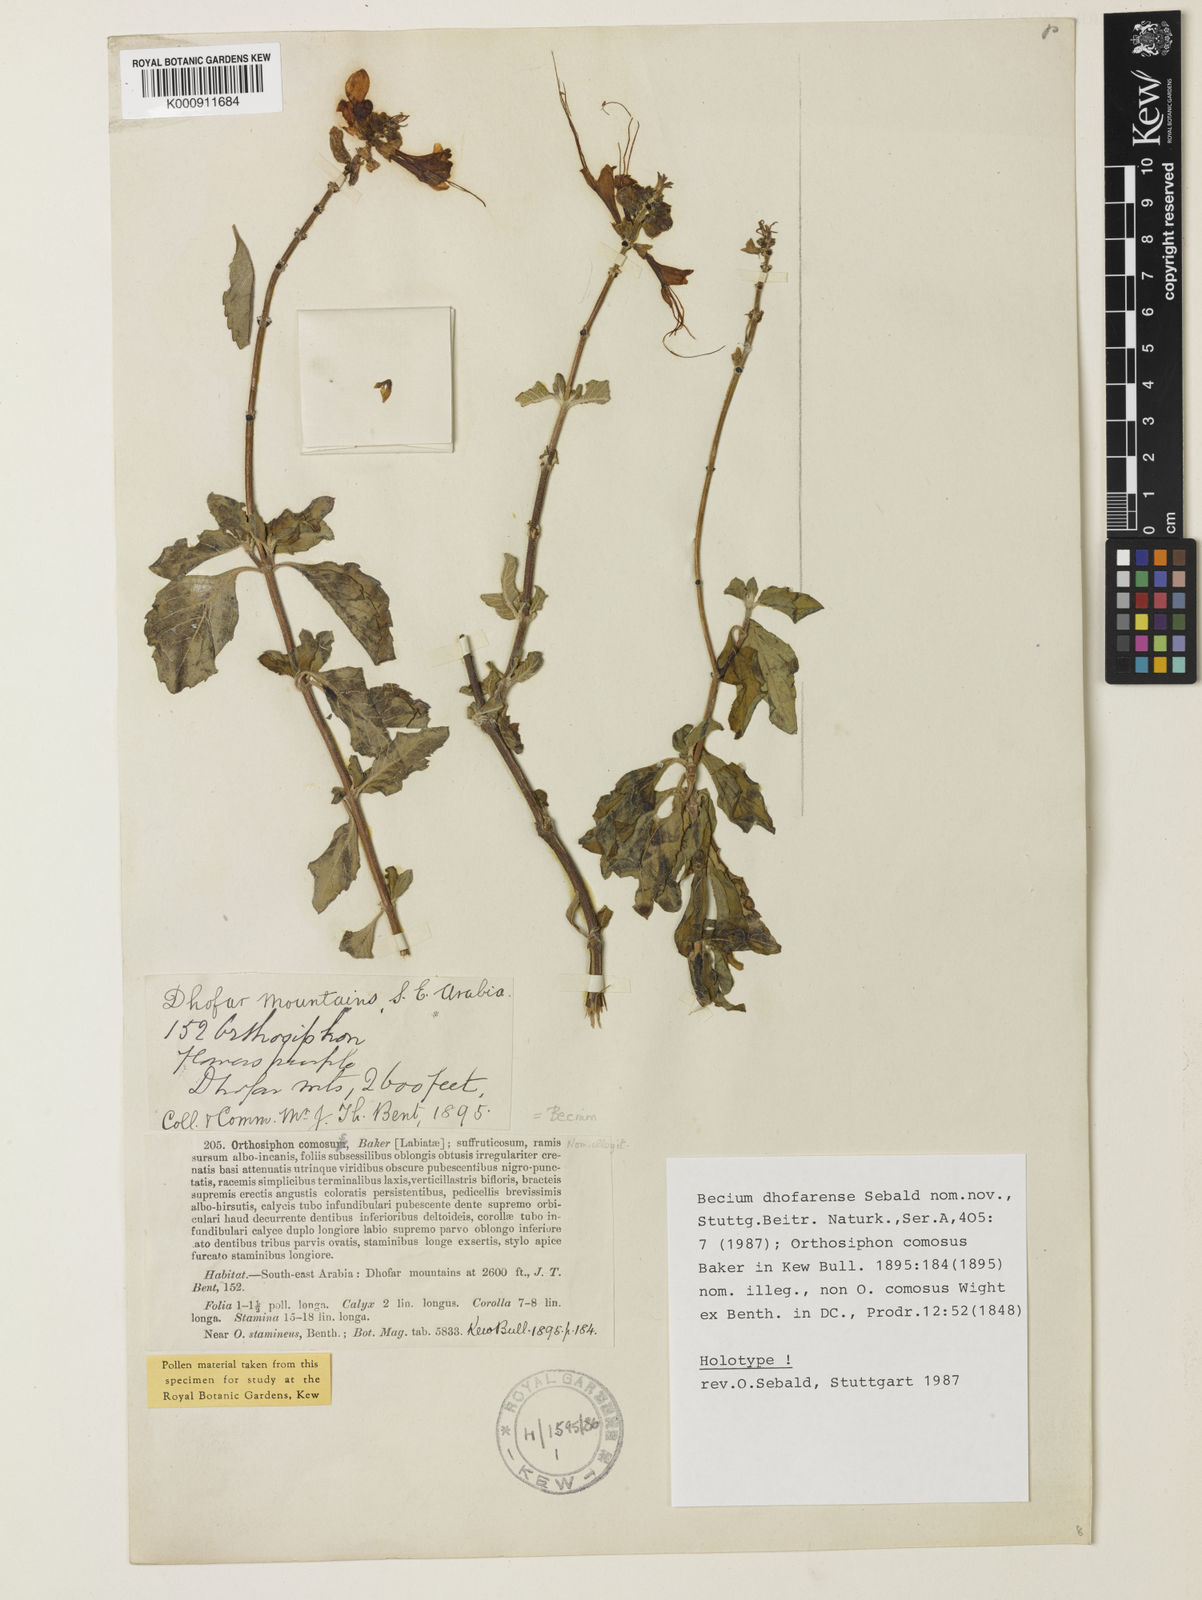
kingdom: Plantae
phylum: Tracheophyta
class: Magnoliopsida
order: Lamiales
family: Lamiaceae
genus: Ocimum
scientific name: Ocimum dhofarense
